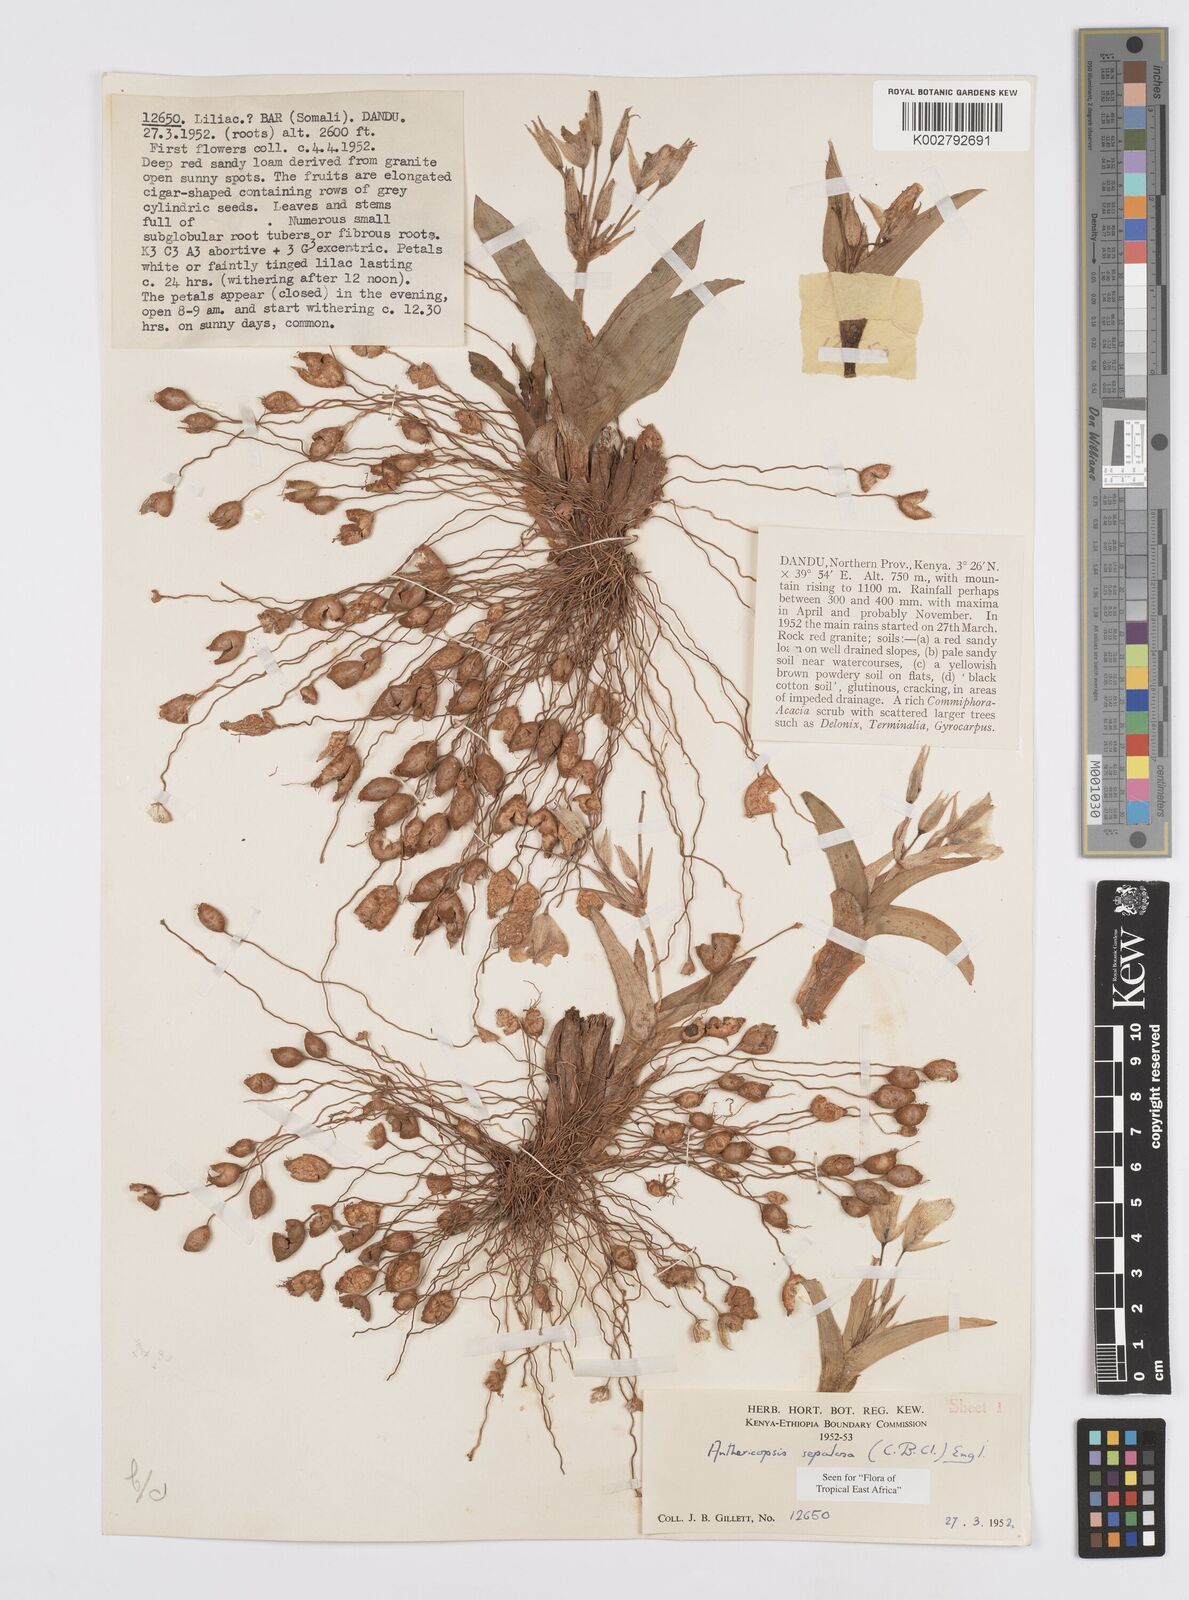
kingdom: Plantae
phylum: Tracheophyta
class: Liliopsida
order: Commelinales
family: Commelinaceae
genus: Anthericopsis
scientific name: Anthericopsis sepalosa
